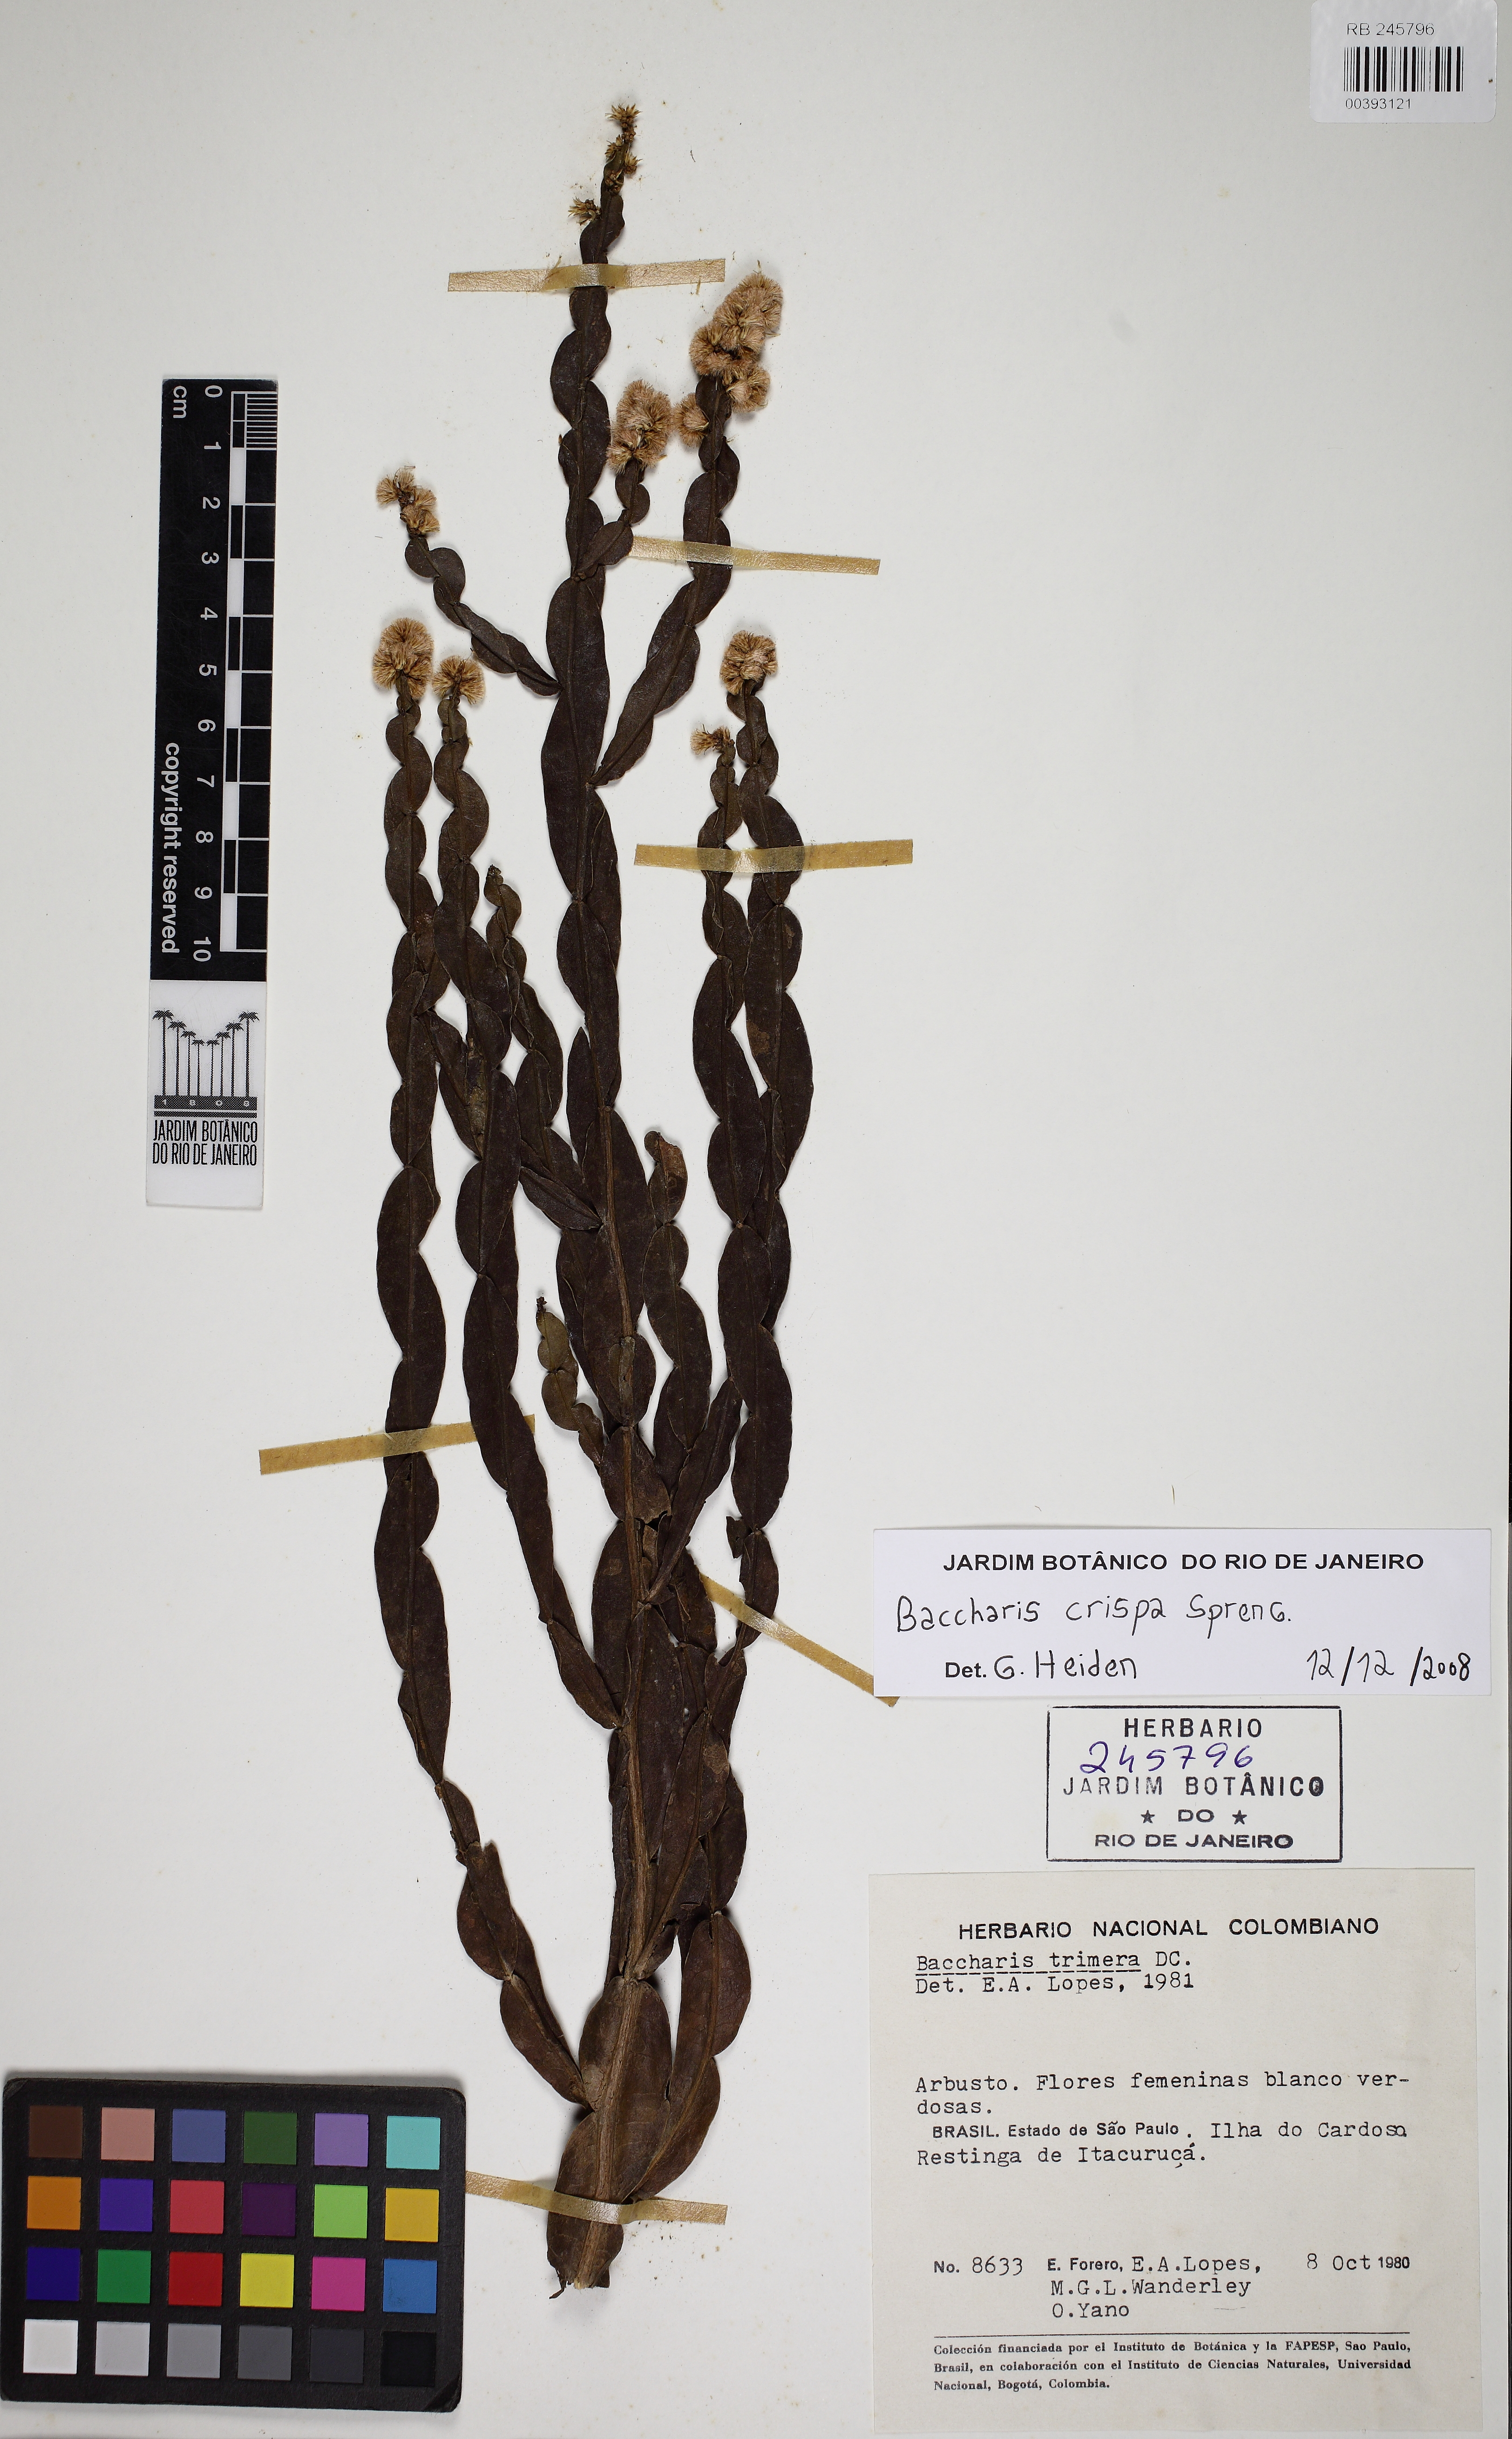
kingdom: Plantae
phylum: Tracheophyta
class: Magnoliopsida
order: Asterales
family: Asteraceae
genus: Baccharis
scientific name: Baccharis crispa
